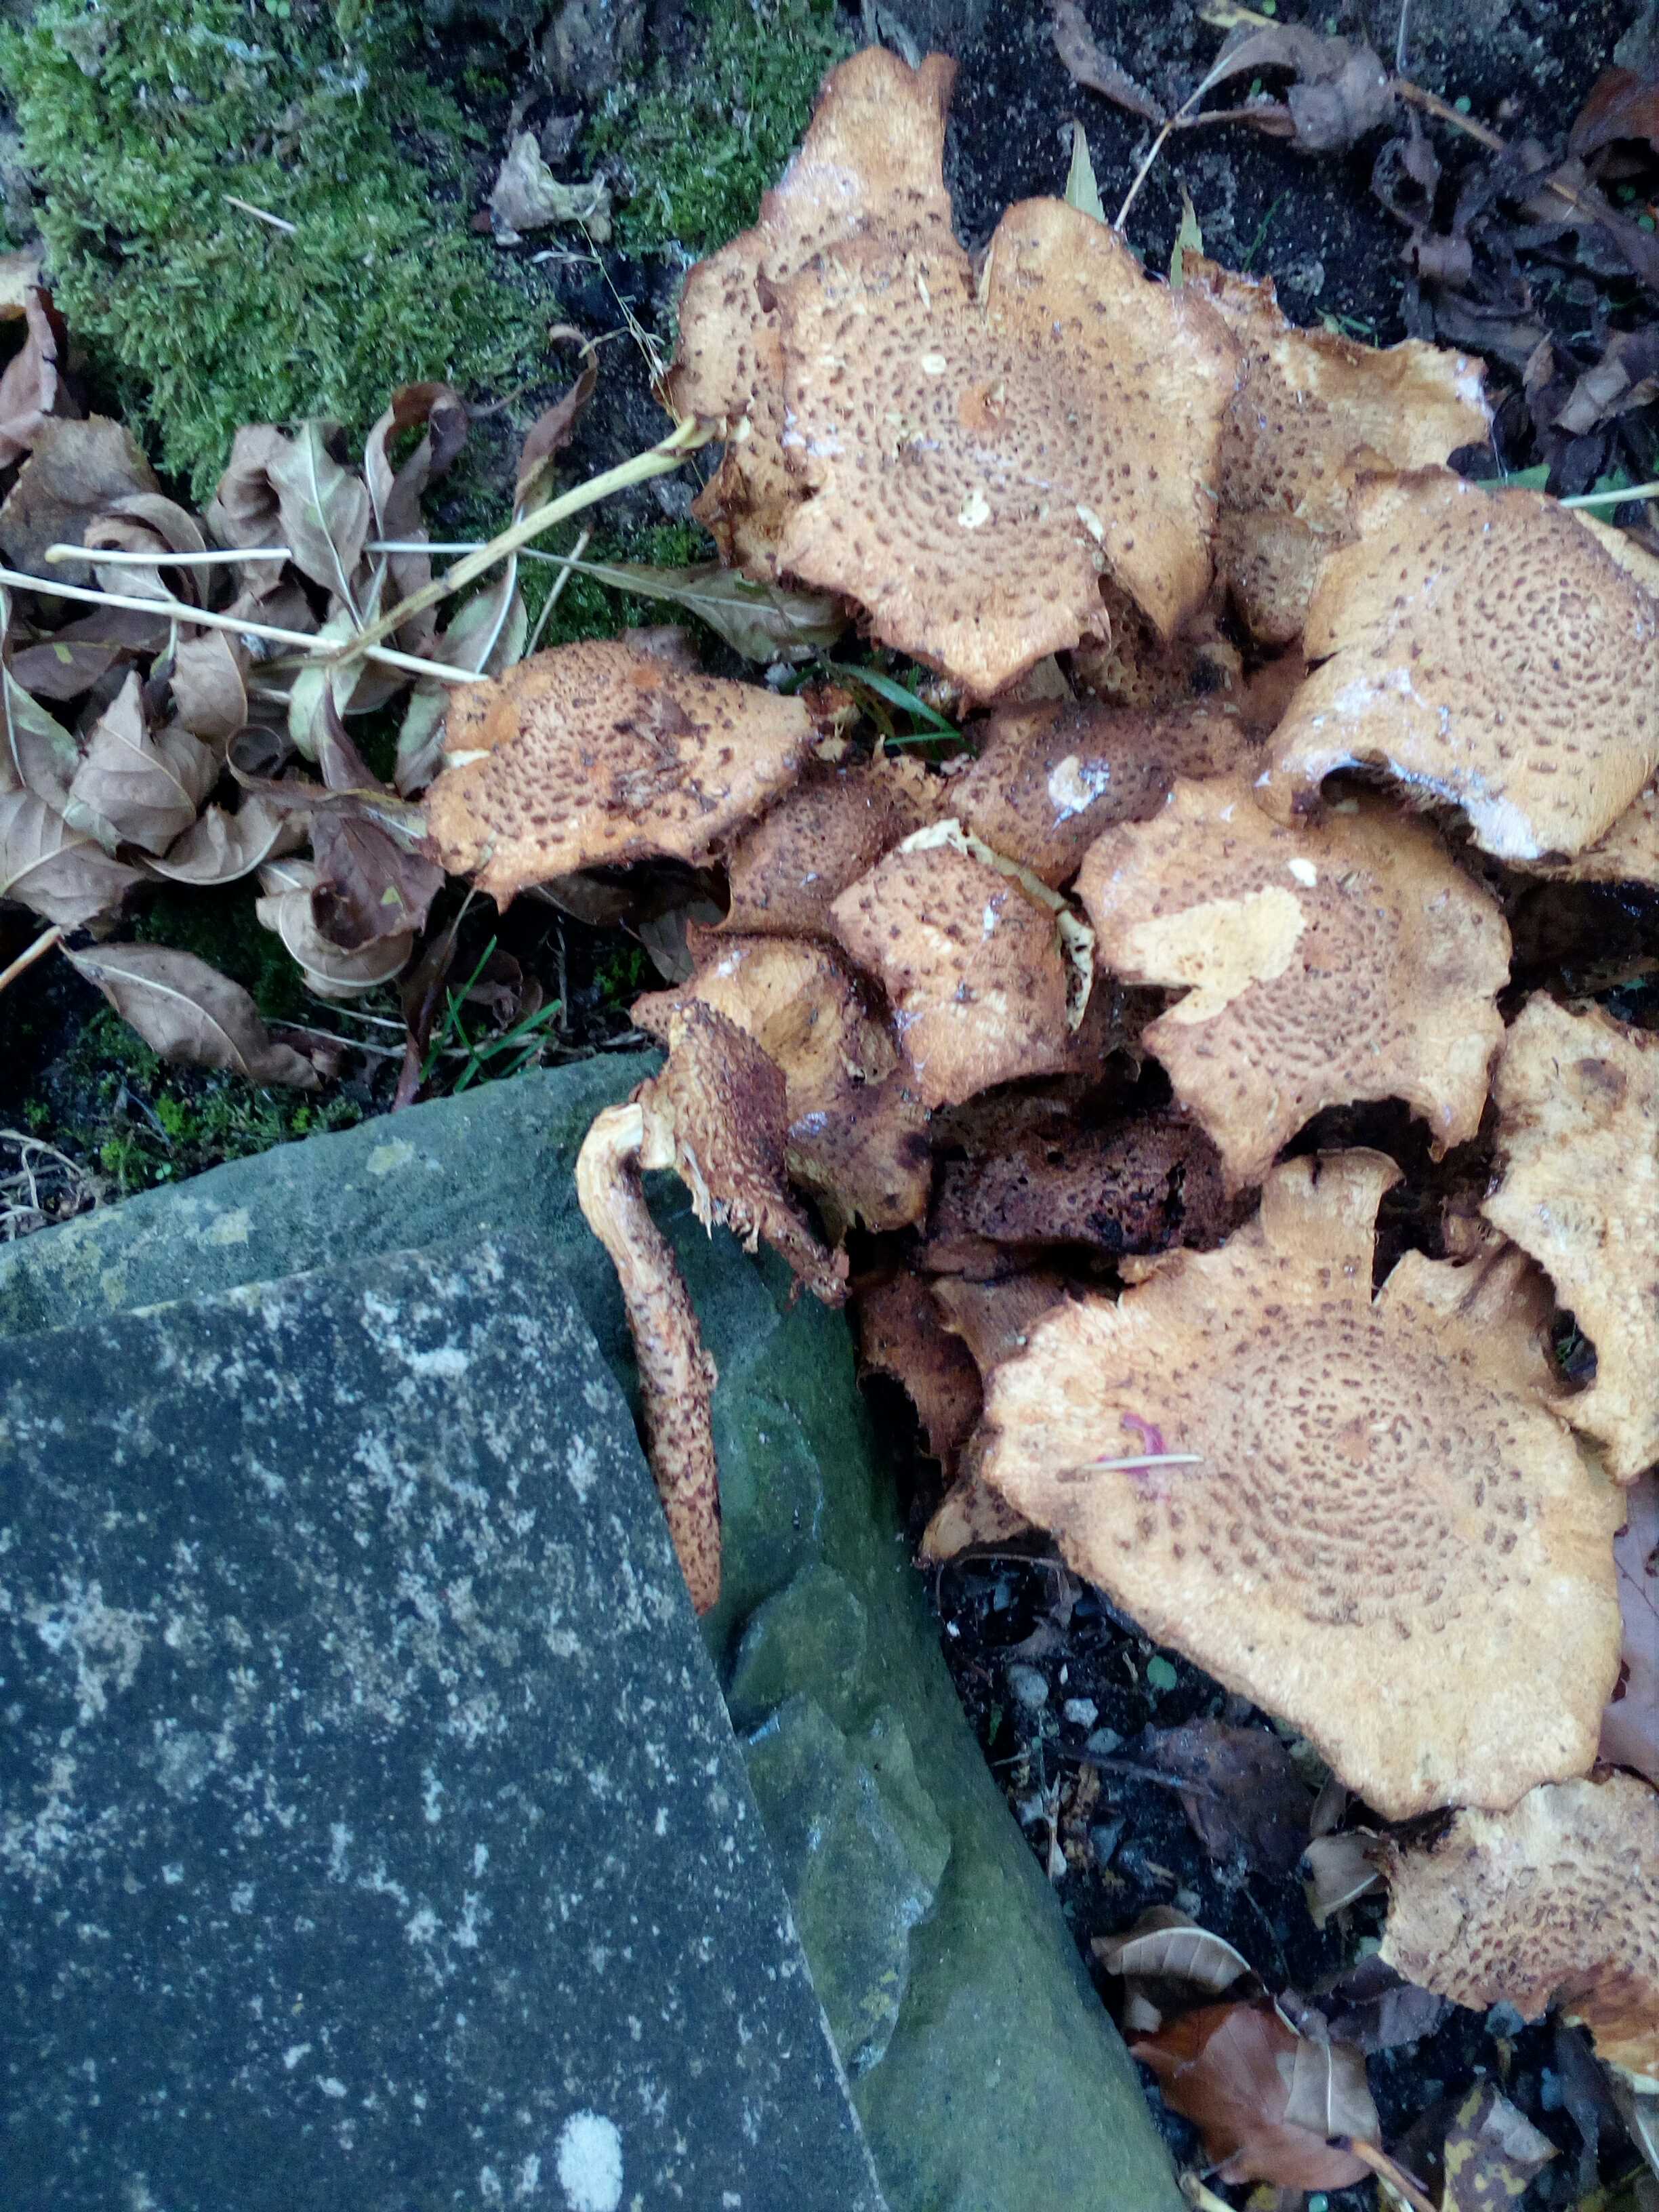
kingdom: Fungi
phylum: Basidiomycota
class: Agaricomycetes
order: Agaricales
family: Strophariaceae
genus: Pholiota
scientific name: Pholiota squarrosa
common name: krumskællet skælhat
